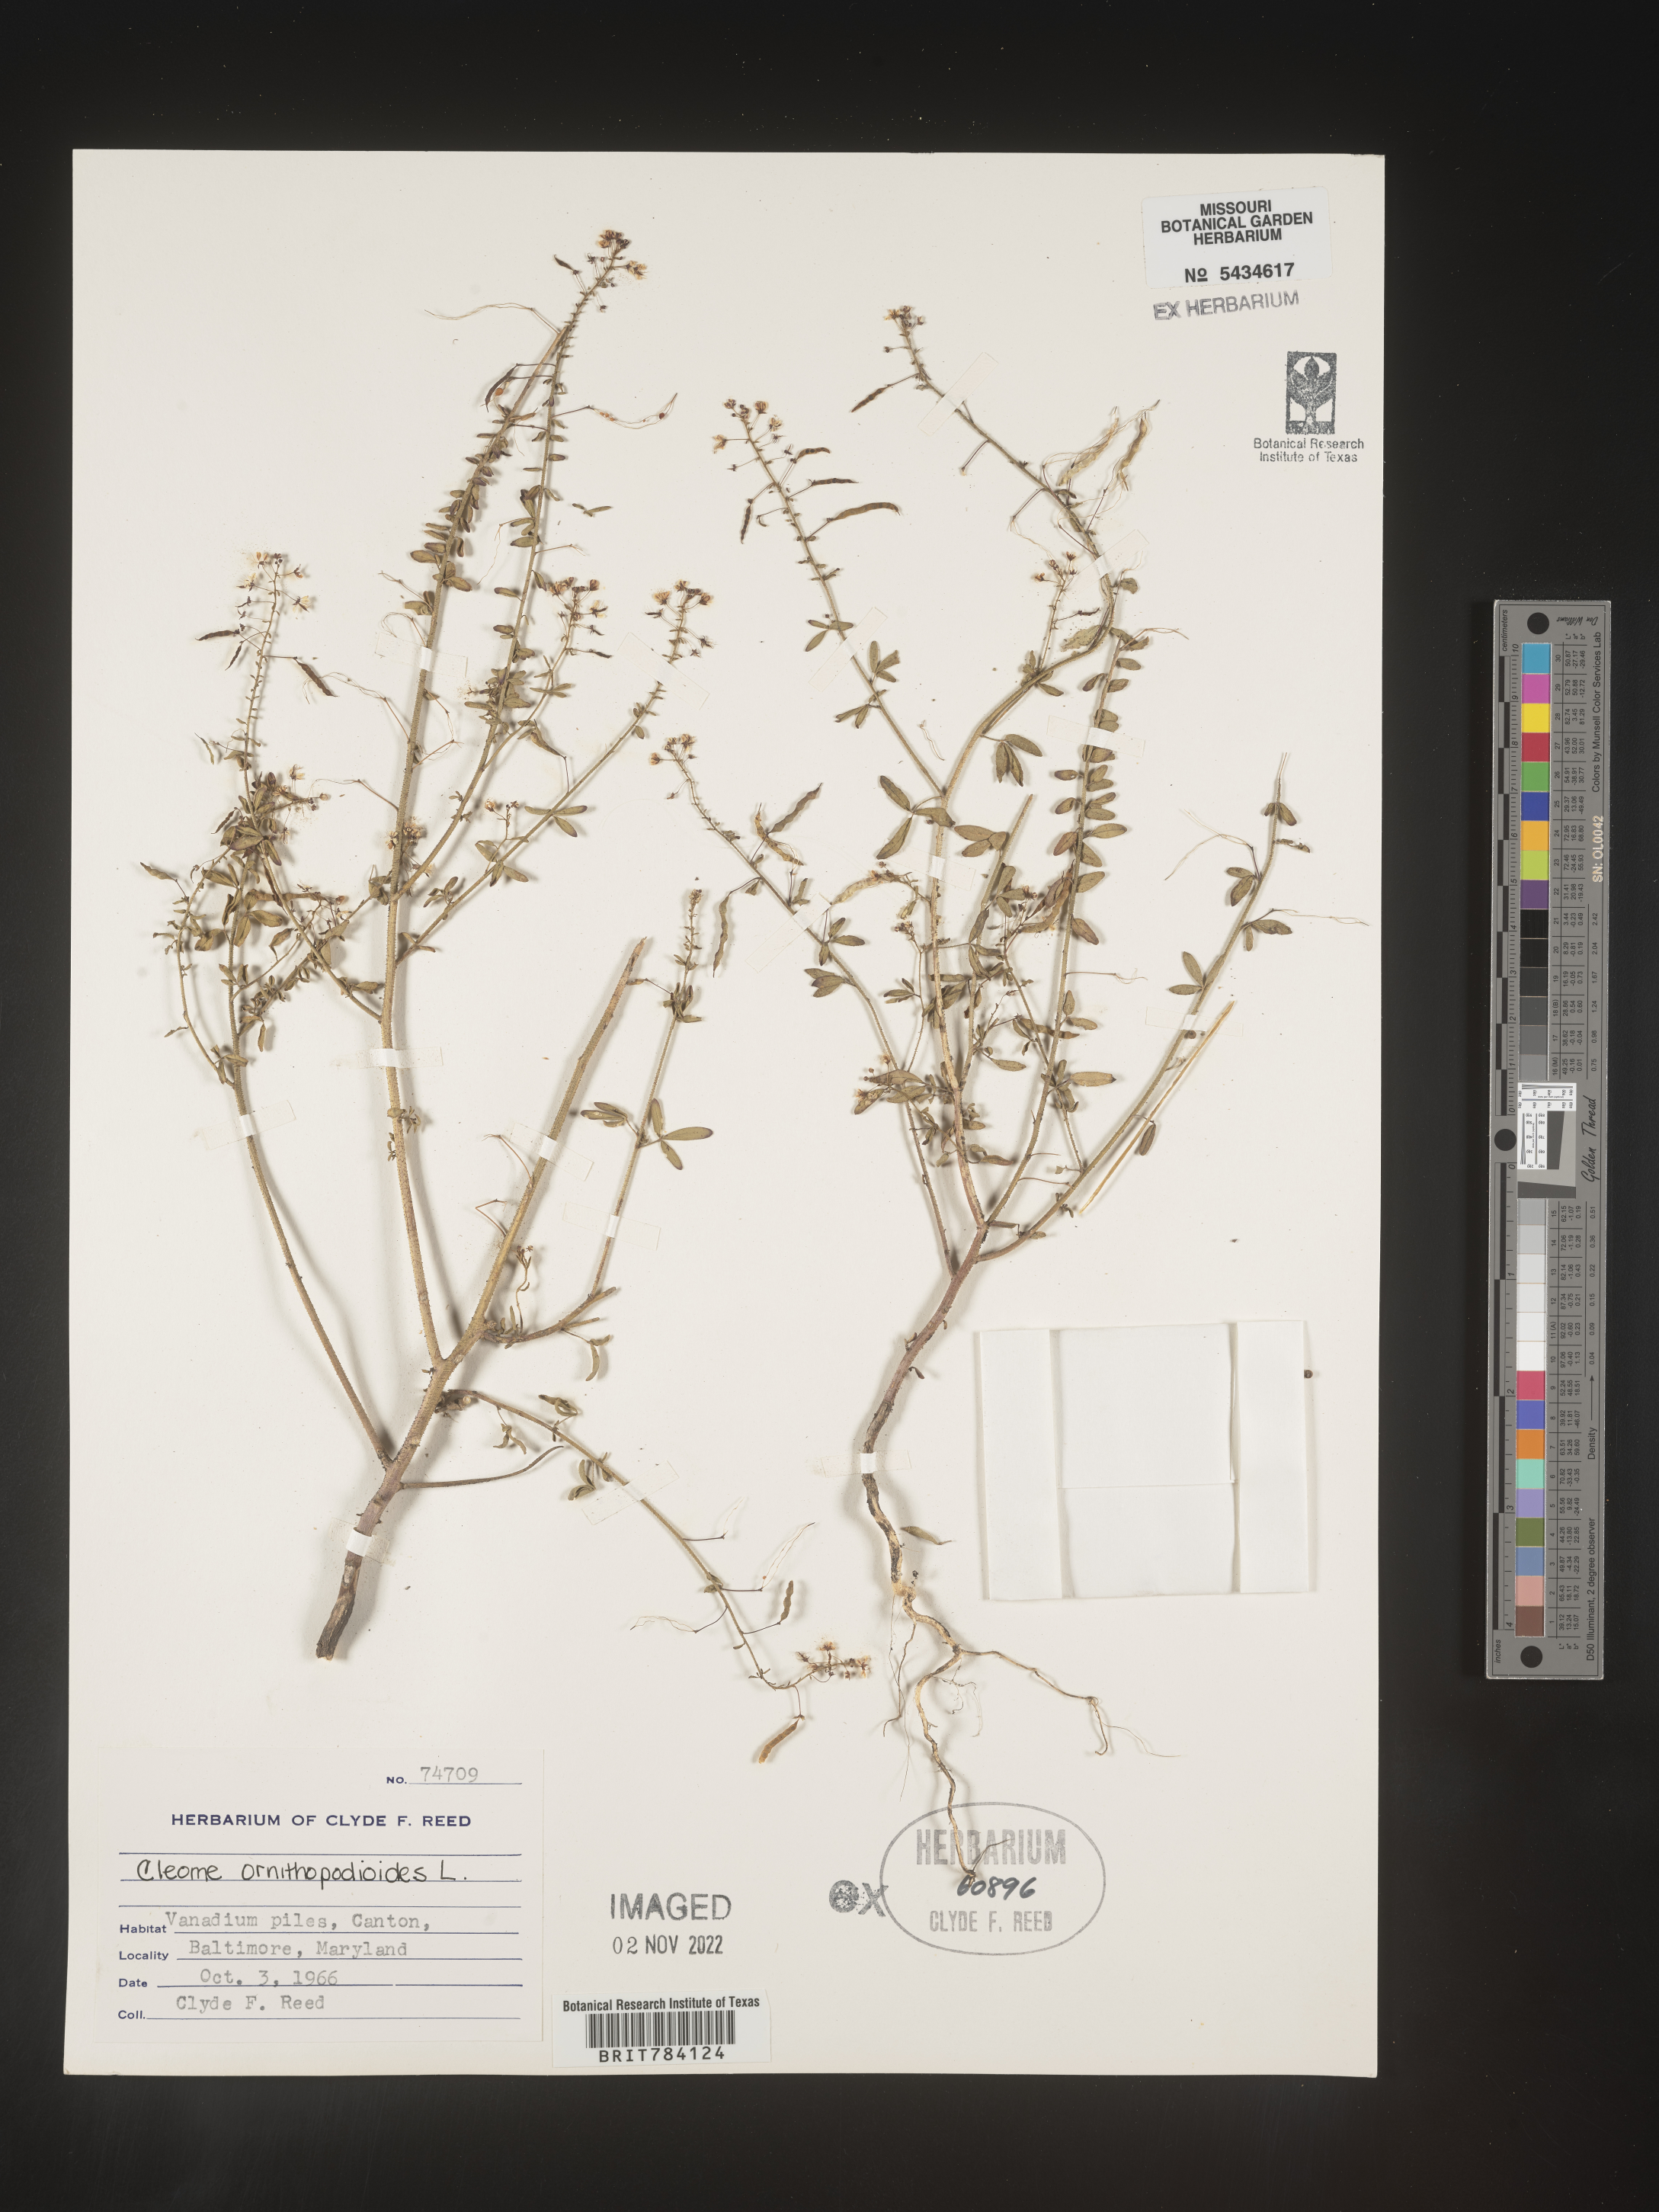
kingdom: Plantae
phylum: Tracheophyta
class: Magnoliopsida
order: Brassicales
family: Cleomaceae
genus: Cleome
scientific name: Cleome
